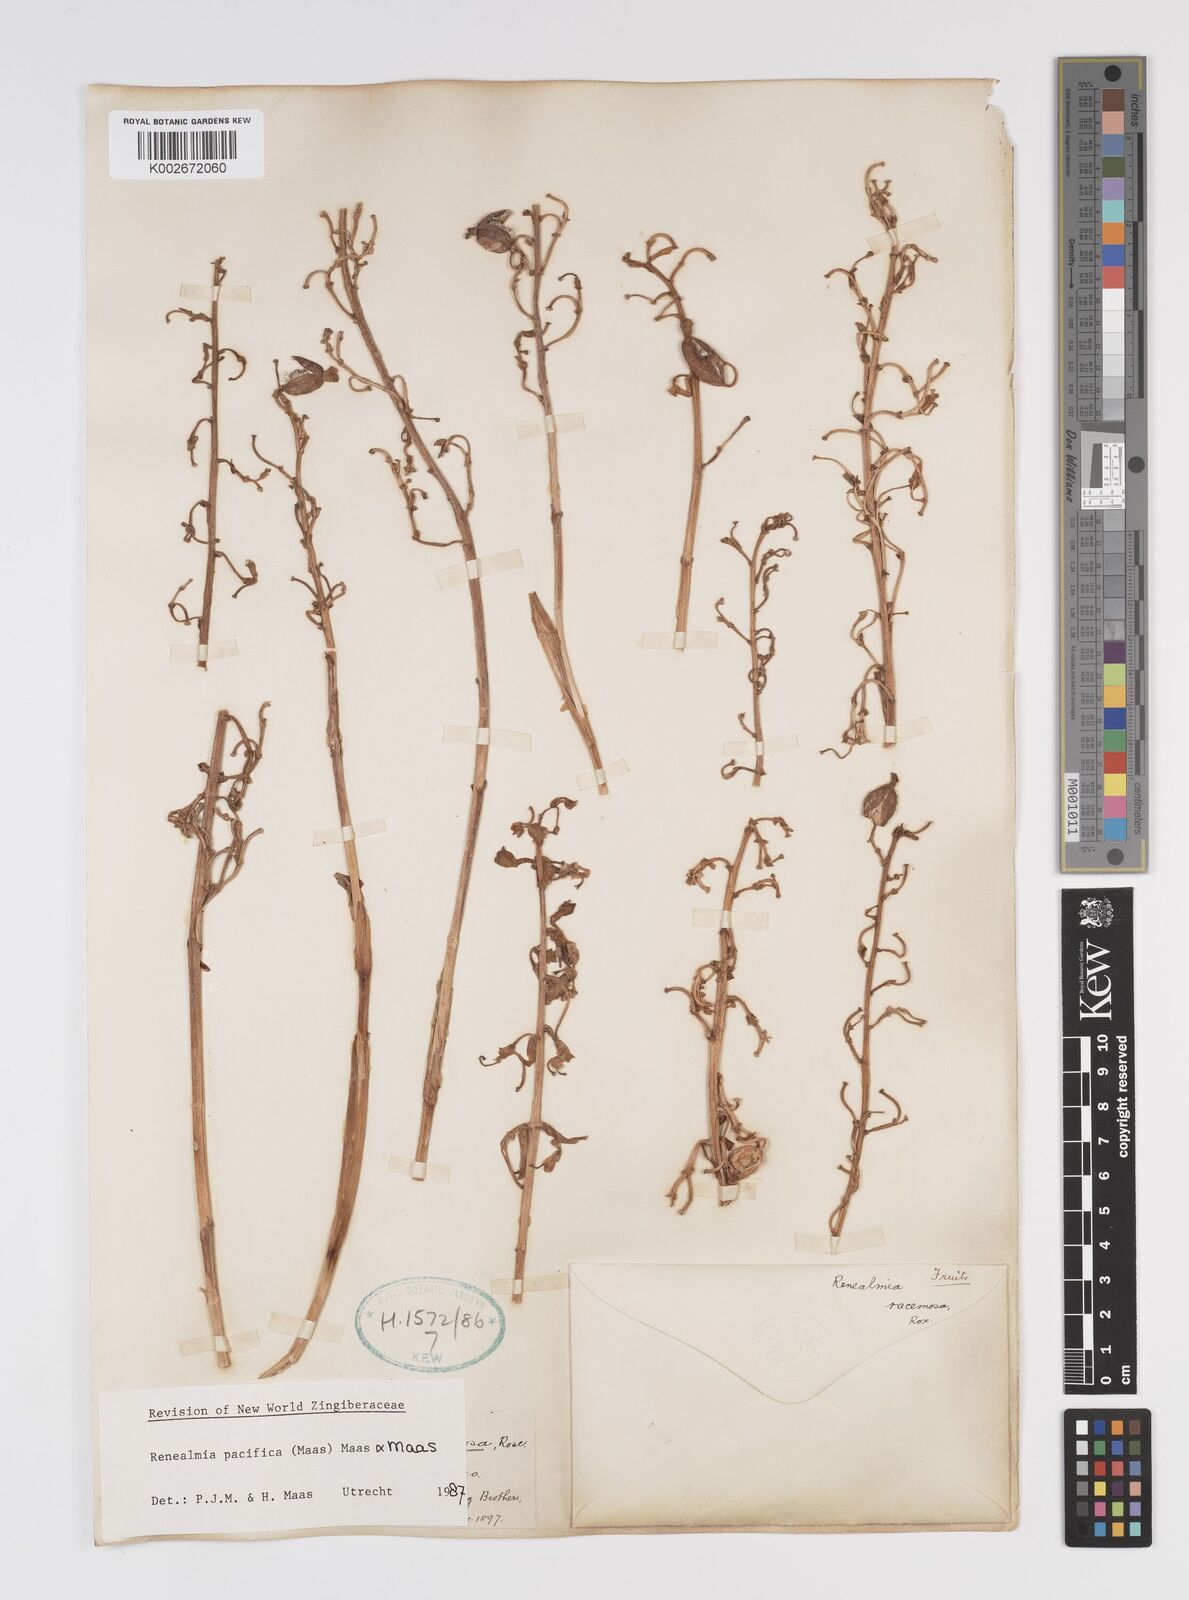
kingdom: Plantae
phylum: Tracheophyta
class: Liliopsida
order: Zingiberales
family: Zingiberaceae
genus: Renealmia
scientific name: Renealmia pacifica
